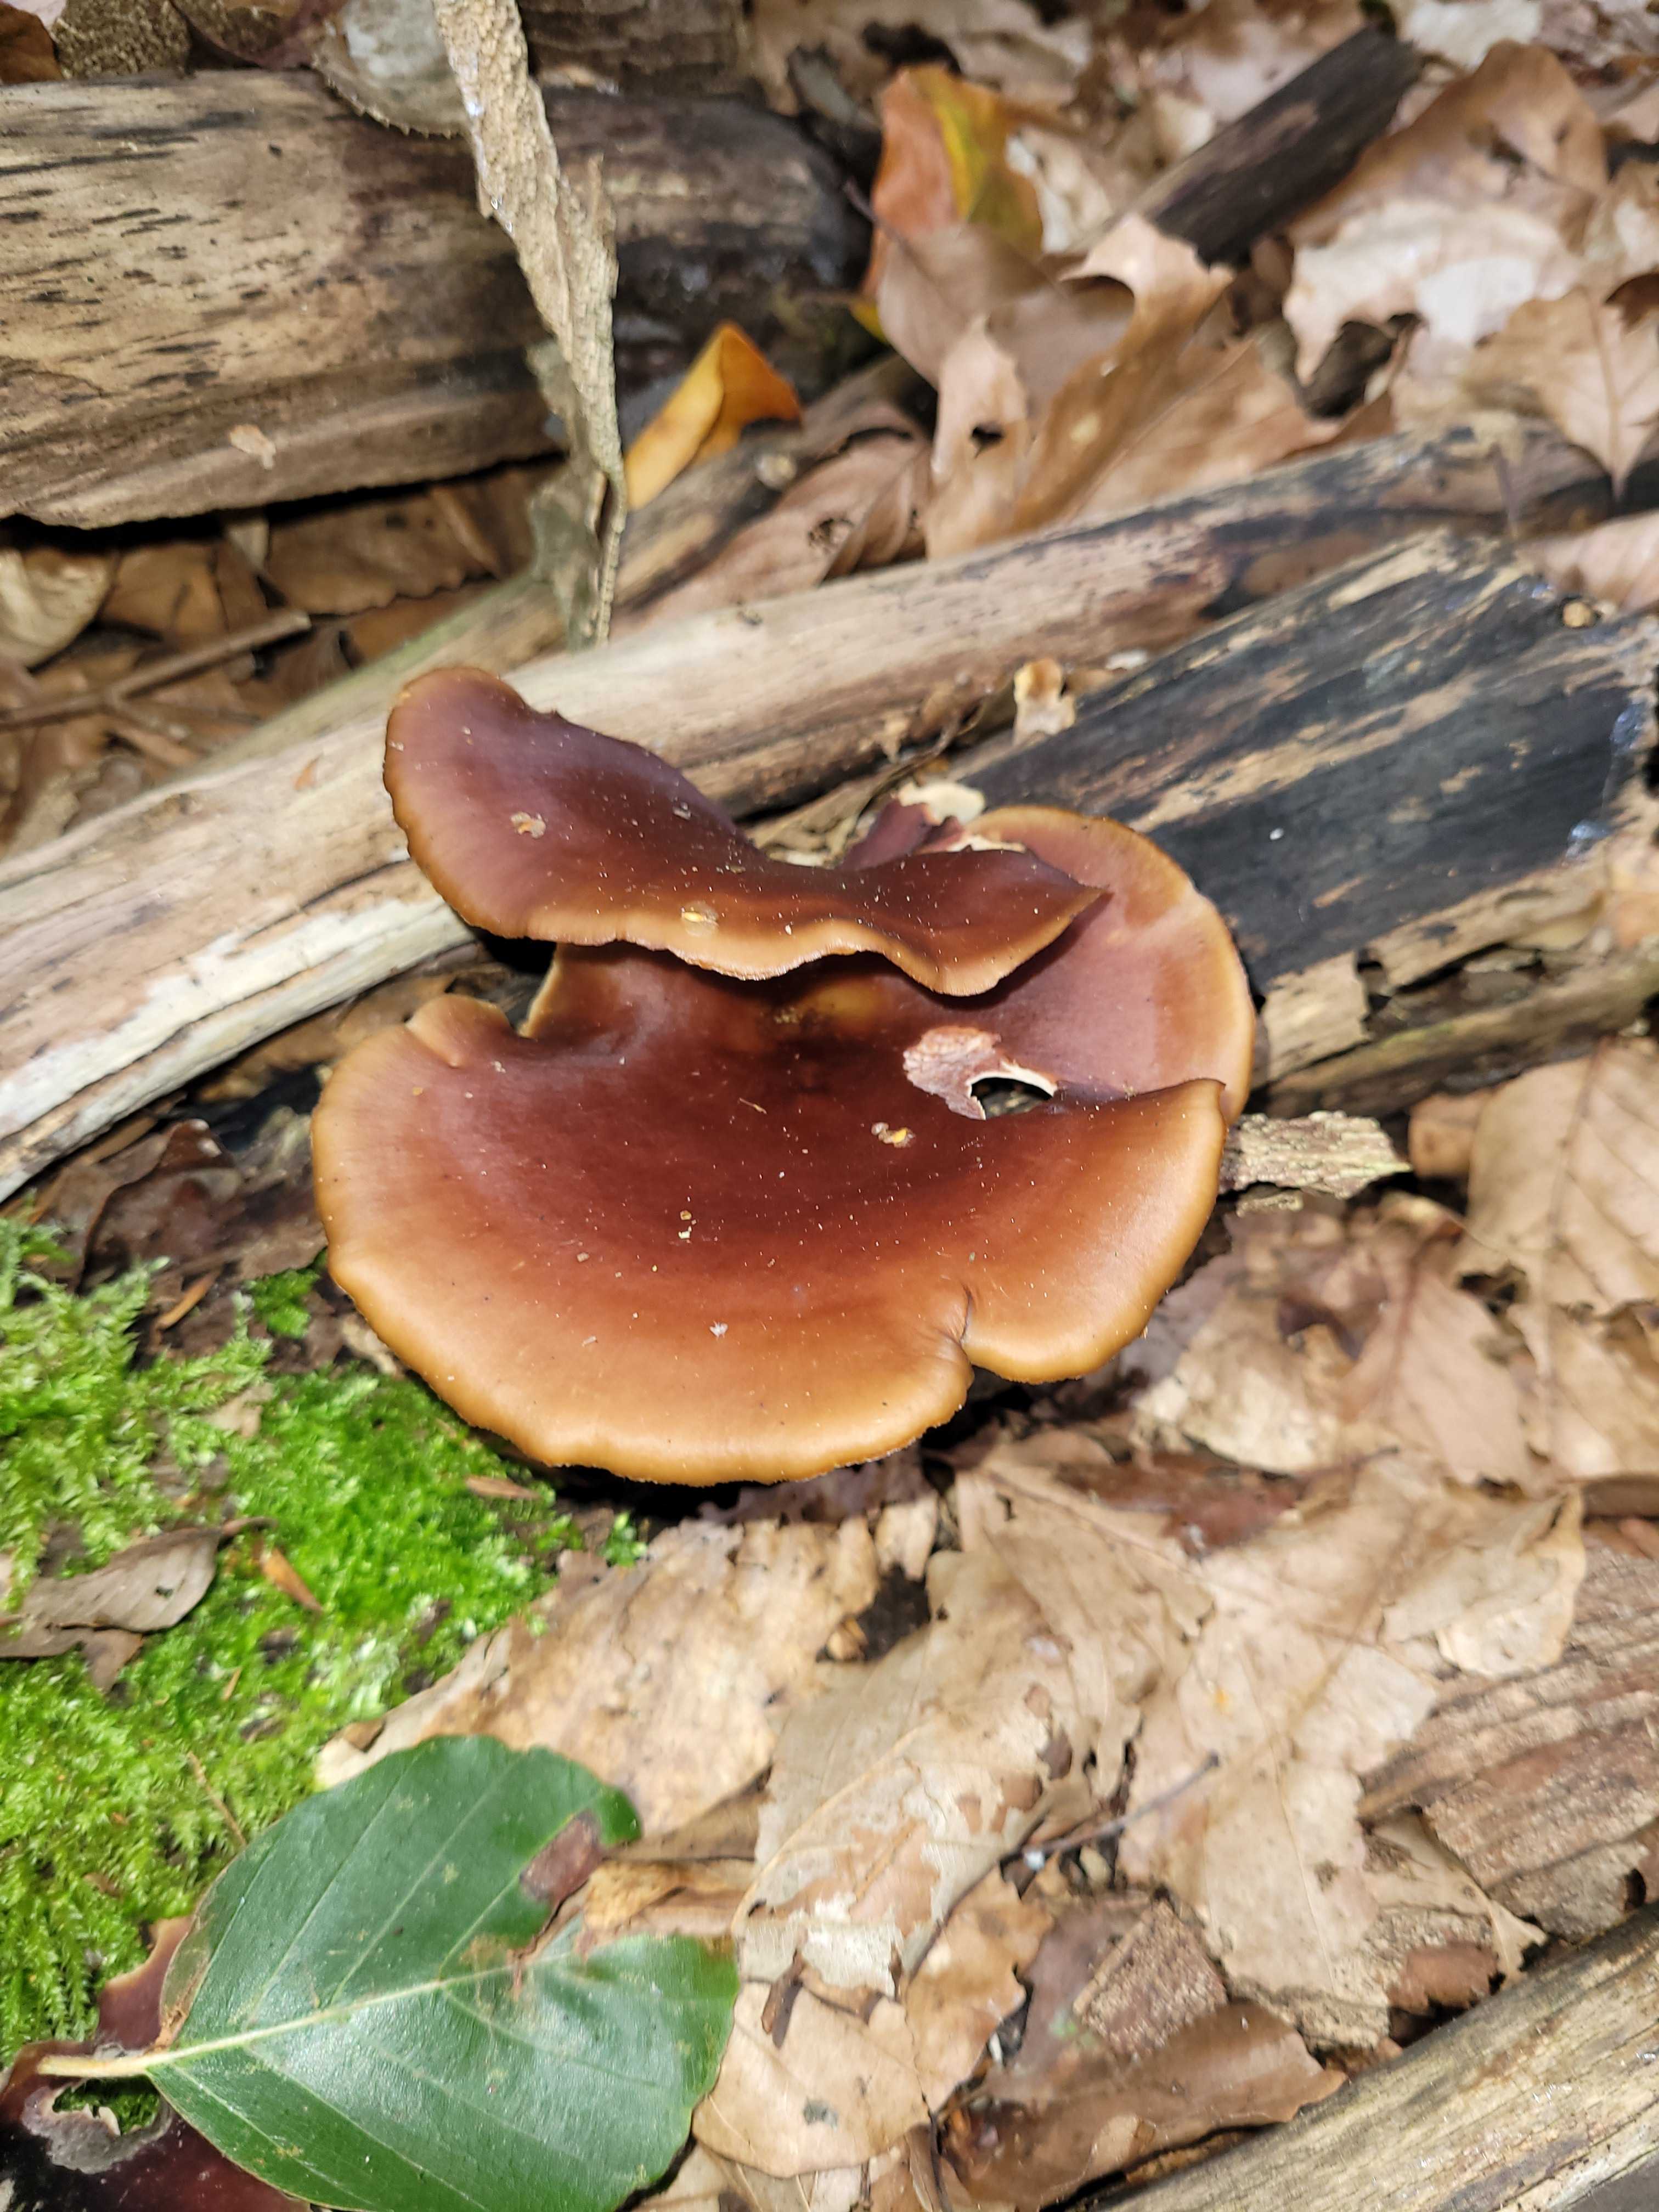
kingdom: Fungi
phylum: Basidiomycota
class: Agaricomycetes
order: Polyporales
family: Polyporaceae
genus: Picipes
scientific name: Picipes badius
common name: kastaniebrun stilkporesvamp
